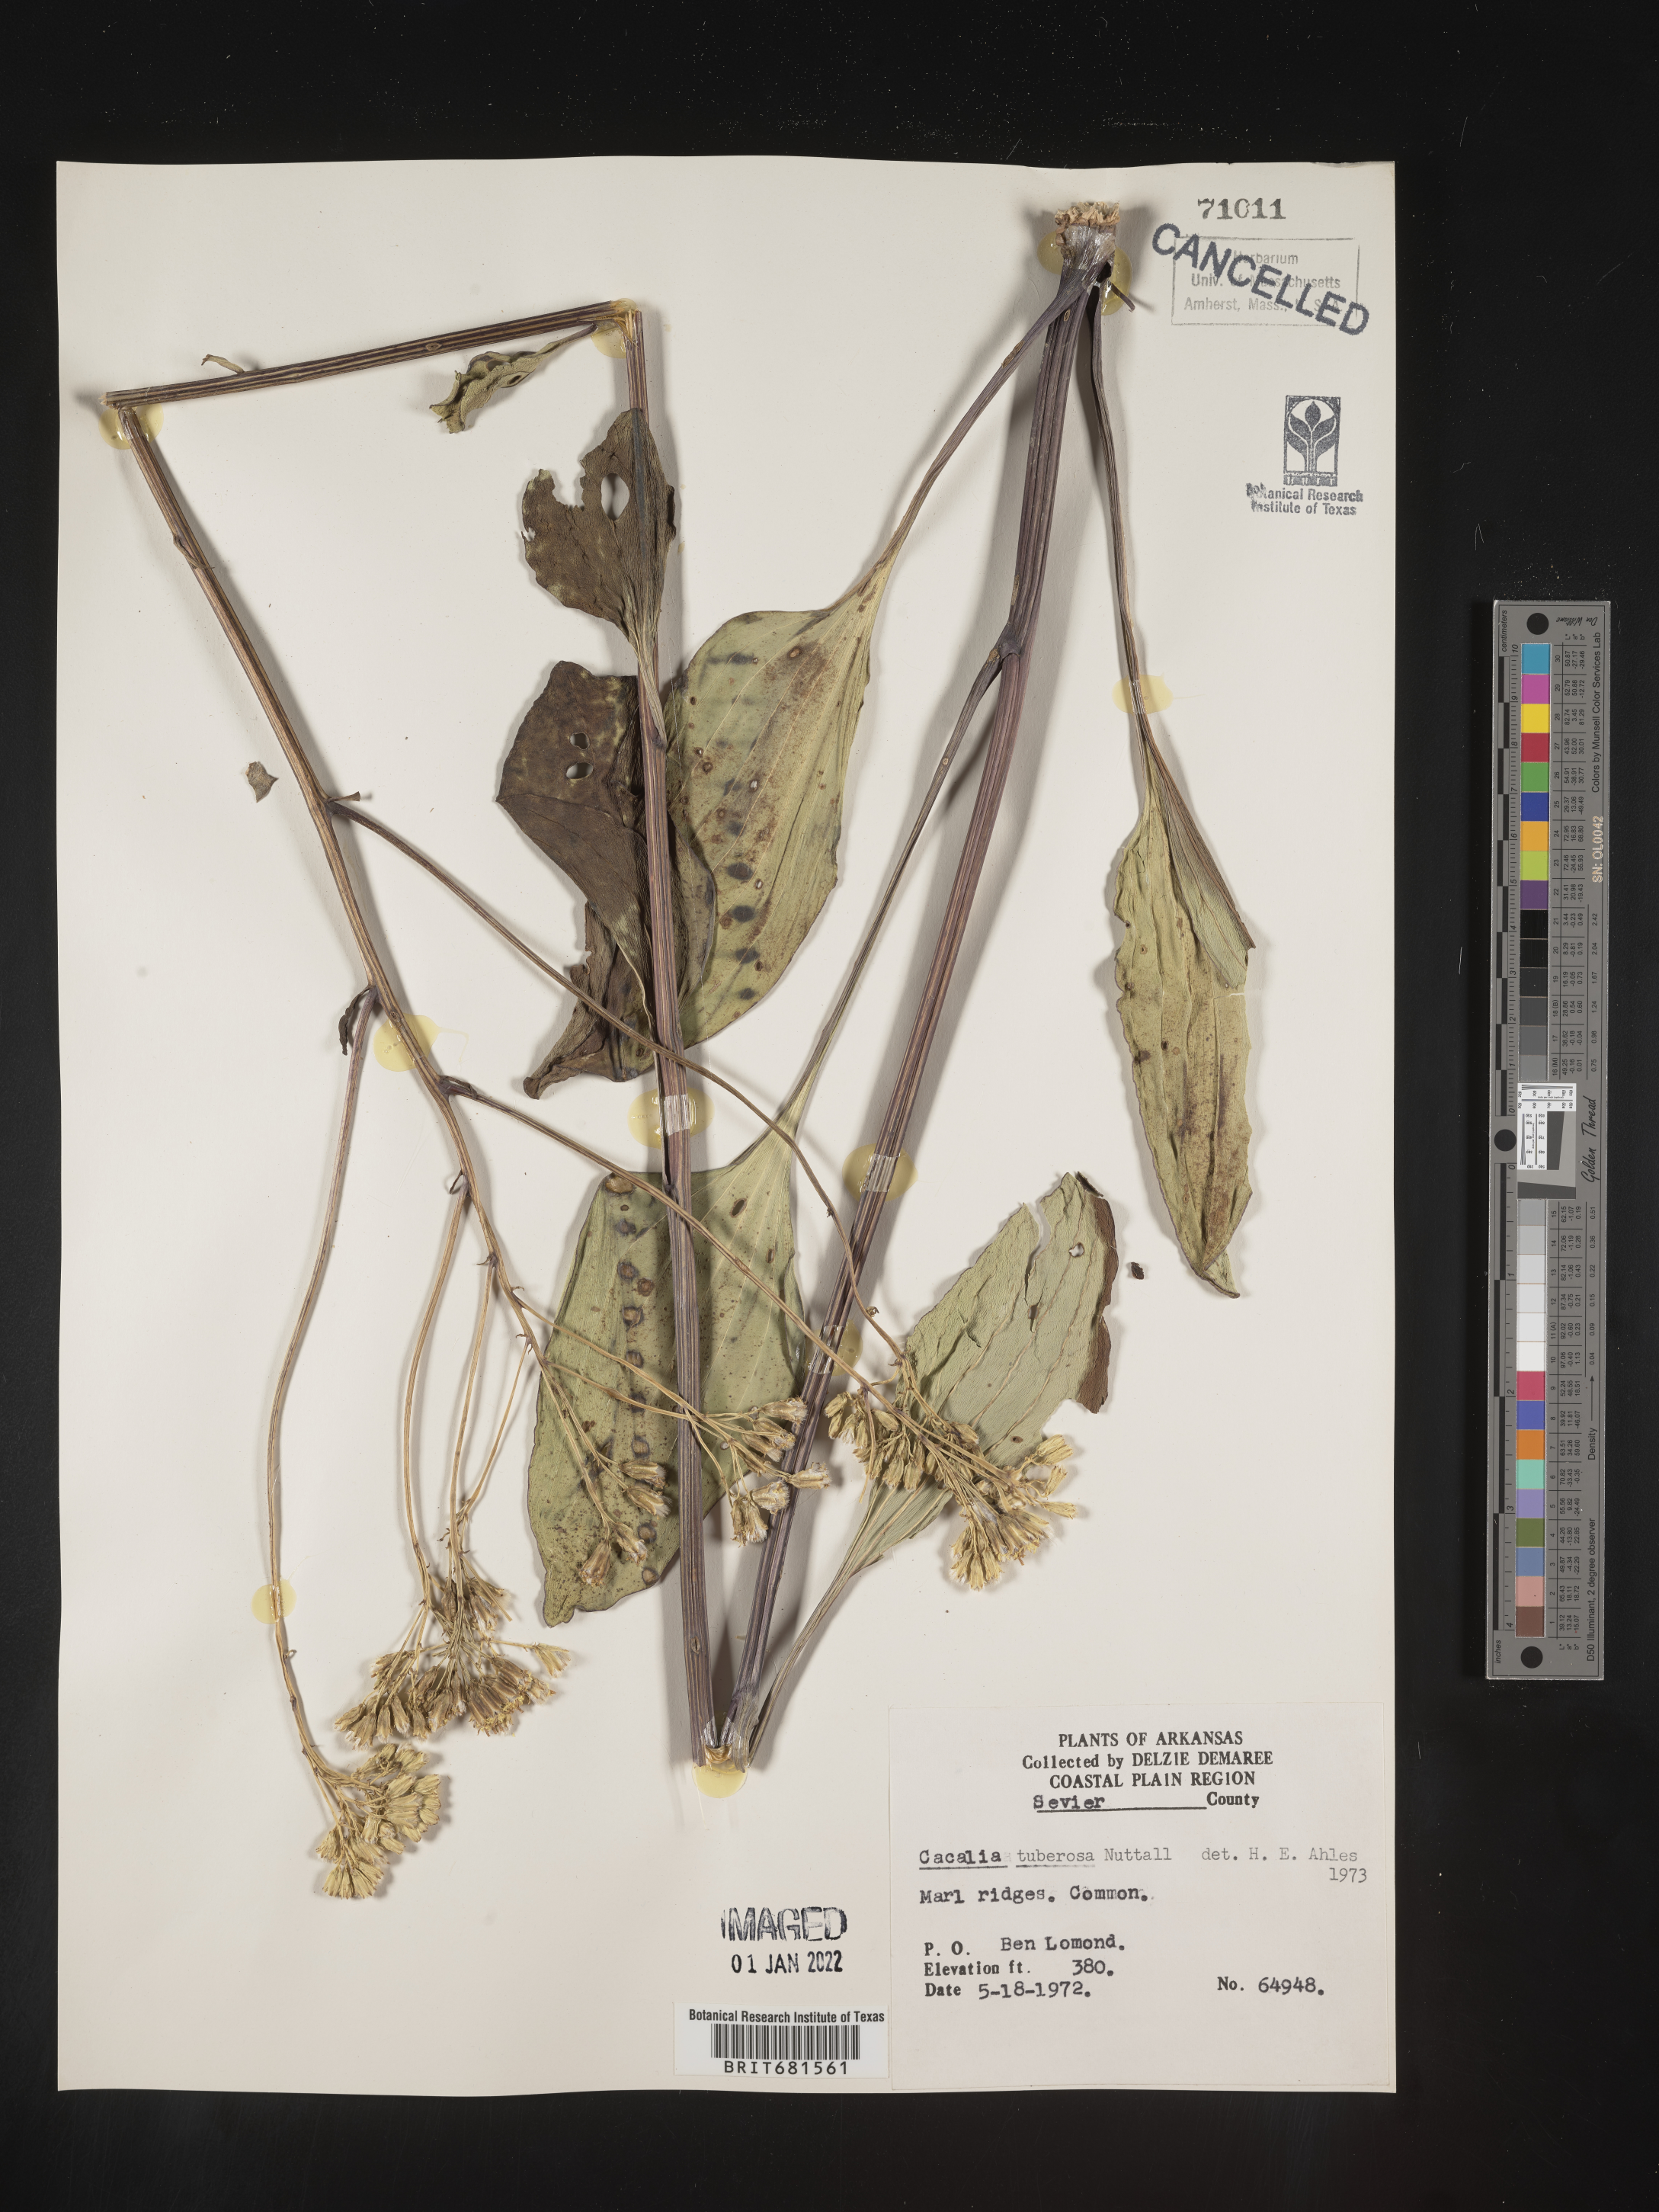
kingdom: Plantae
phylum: Tracheophyta
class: Magnoliopsida
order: Asterales
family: Asteraceae
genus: Arnoglossum
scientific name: Arnoglossum plantagineum
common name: Groove-stemmed indian-plantain
